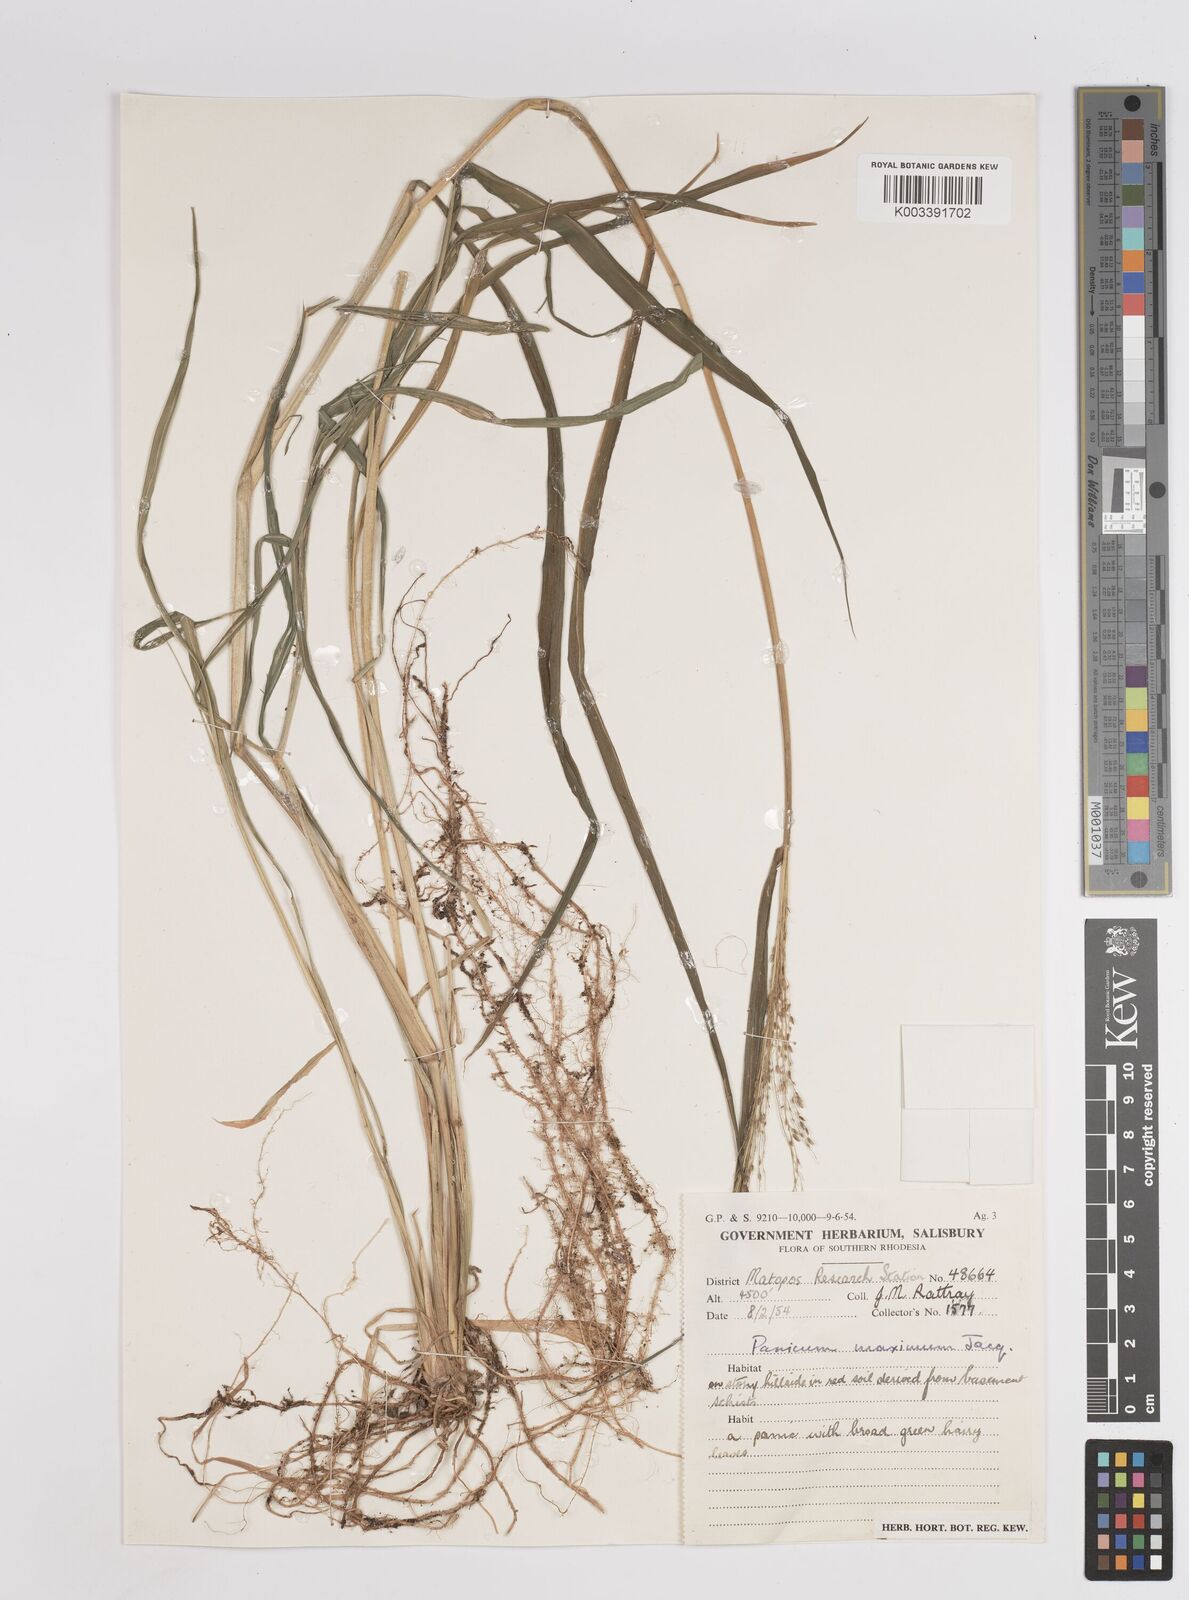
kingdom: Plantae
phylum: Tracheophyta
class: Liliopsida
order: Poales
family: Poaceae
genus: Megathyrsus
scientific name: Megathyrsus maximus
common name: Guineagrass
